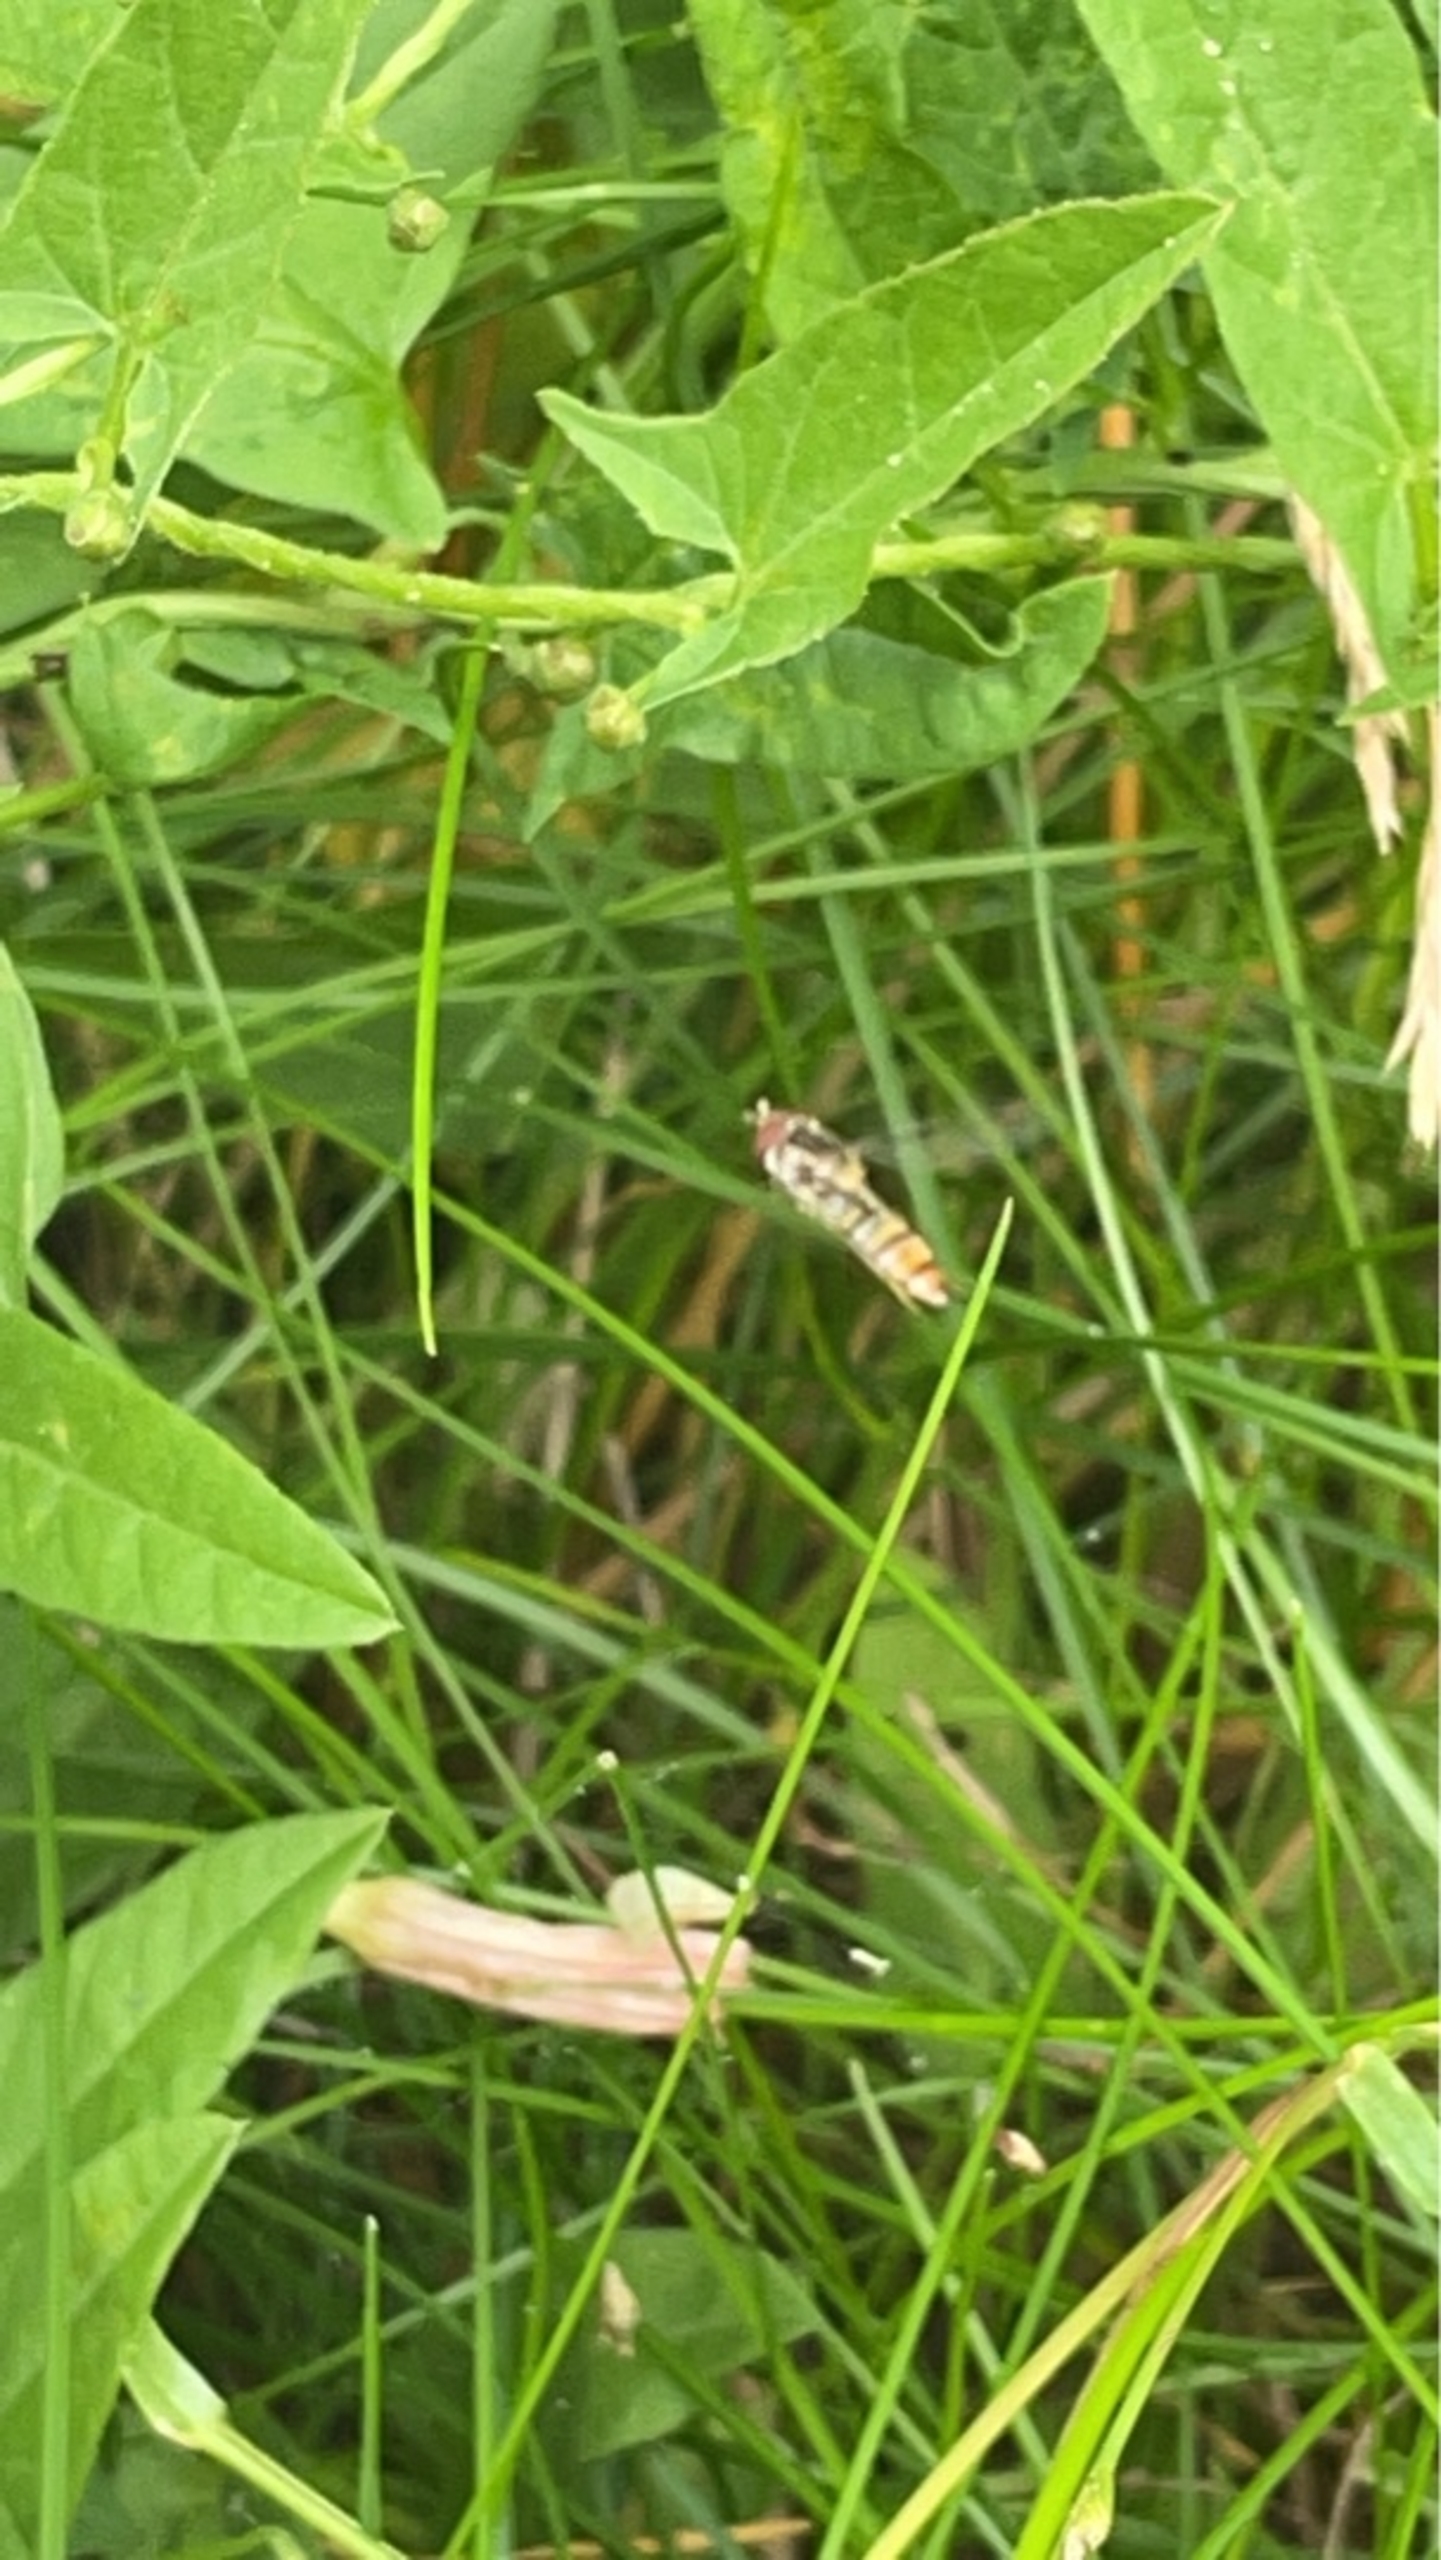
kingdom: Animalia
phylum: Arthropoda
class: Insecta
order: Diptera
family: Syrphidae
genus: Episyrphus
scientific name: Episyrphus balteatus
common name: Dobbeltbåndet svirreflue
